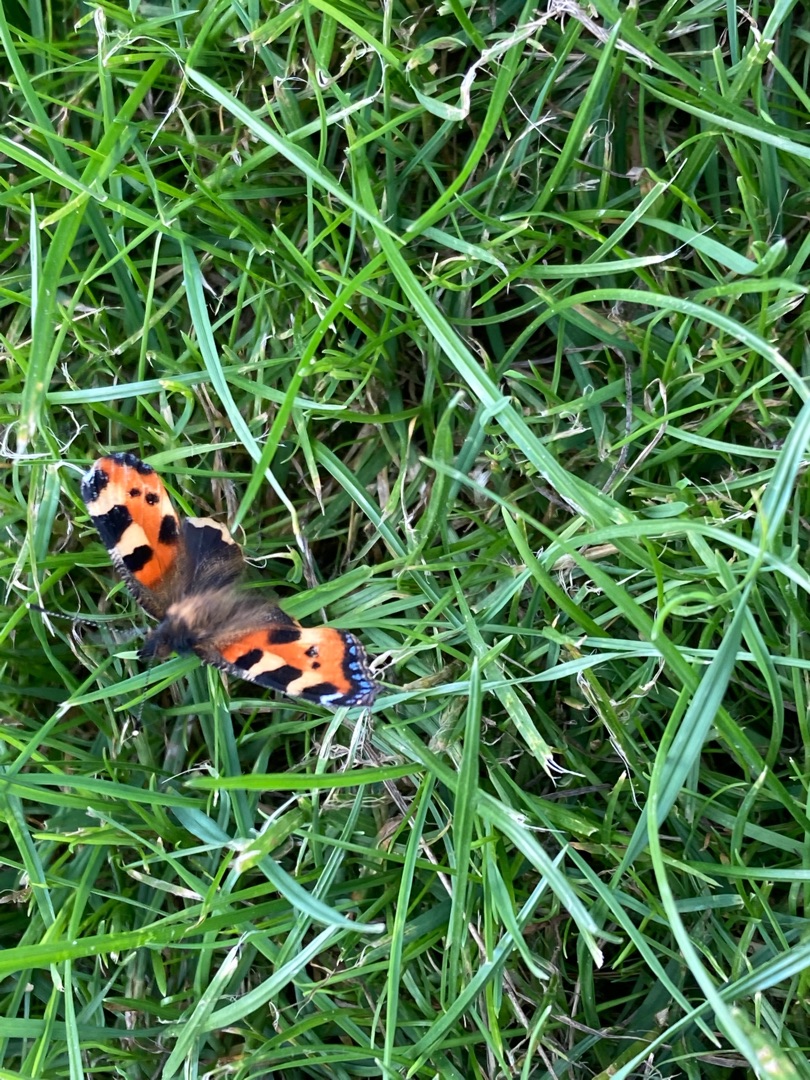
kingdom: Animalia
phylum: Arthropoda
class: Insecta
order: Lepidoptera
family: Nymphalidae
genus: Aglais
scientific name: Aglais urticae
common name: Nældens takvinge
